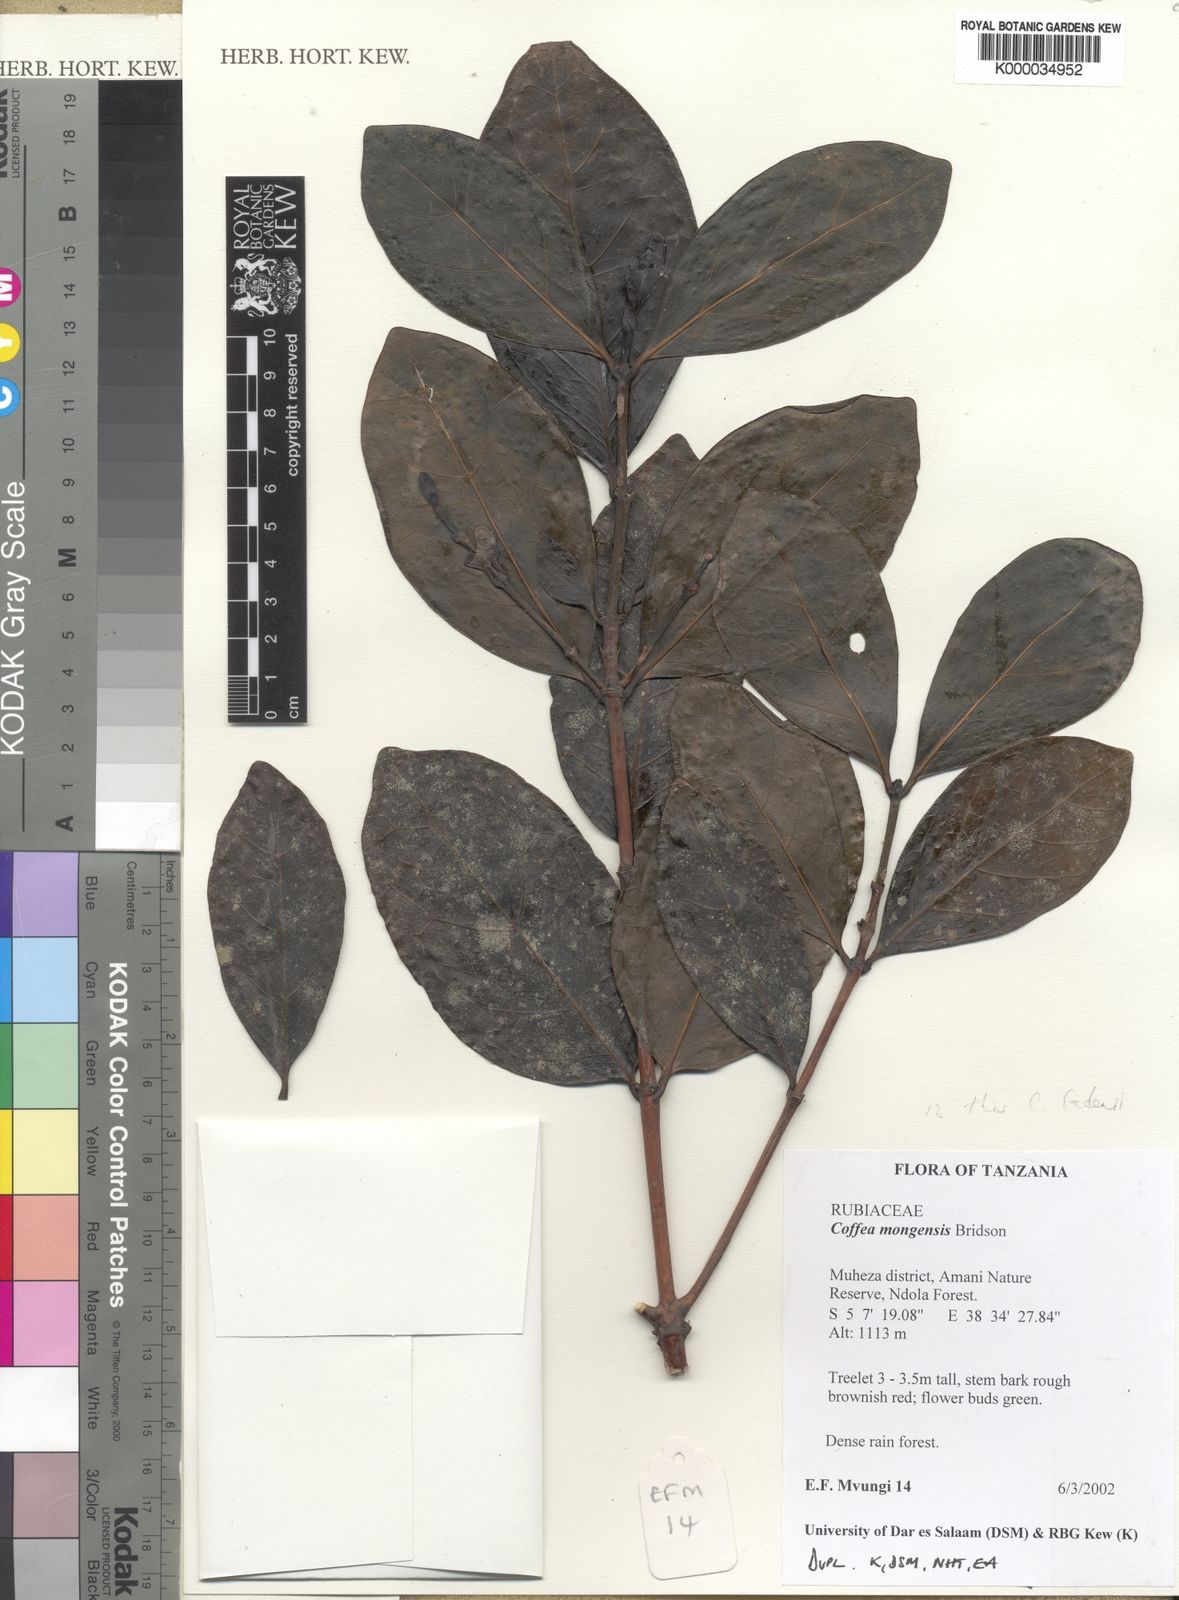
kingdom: Plantae
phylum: Tracheophyta
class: Magnoliopsida
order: Gentianales
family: Rubiaceae
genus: Coffea
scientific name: Coffea mongensis
